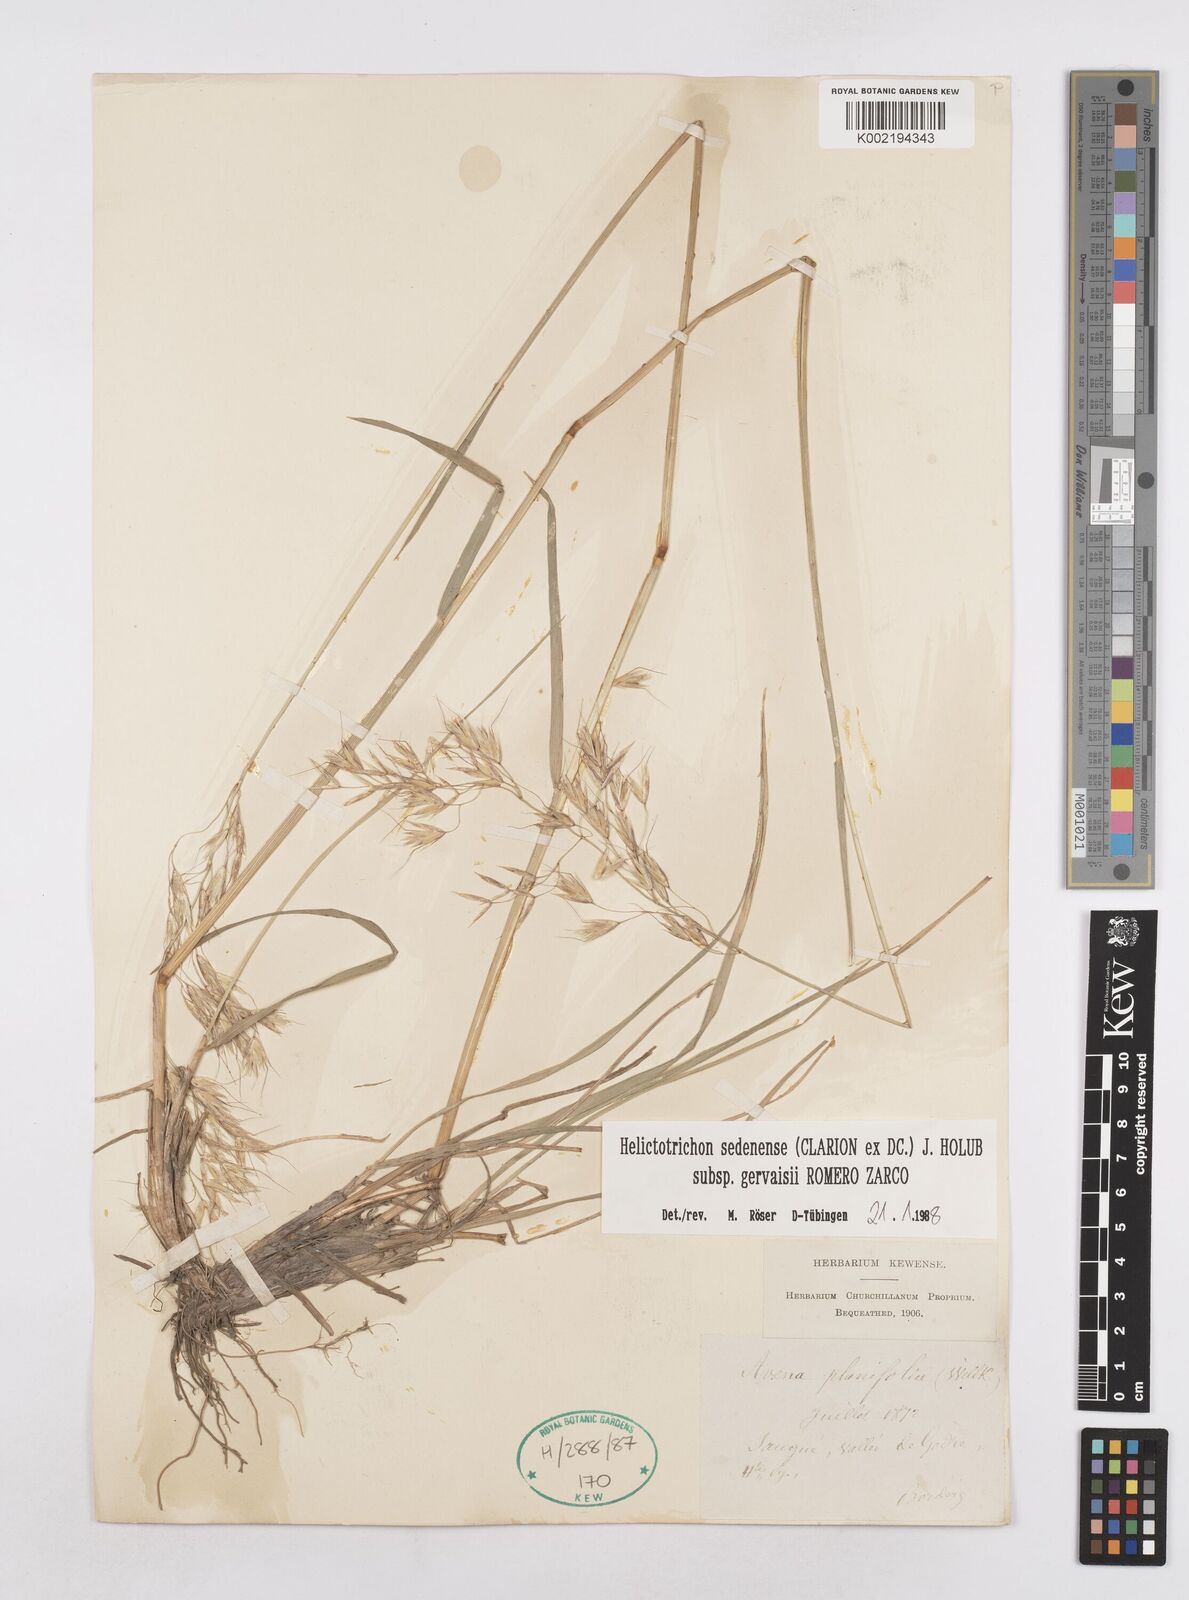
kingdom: Plantae
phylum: Tracheophyta
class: Liliopsida
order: Poales
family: Poaceae
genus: Helictotrichon
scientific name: Helictotrichon sedenense
